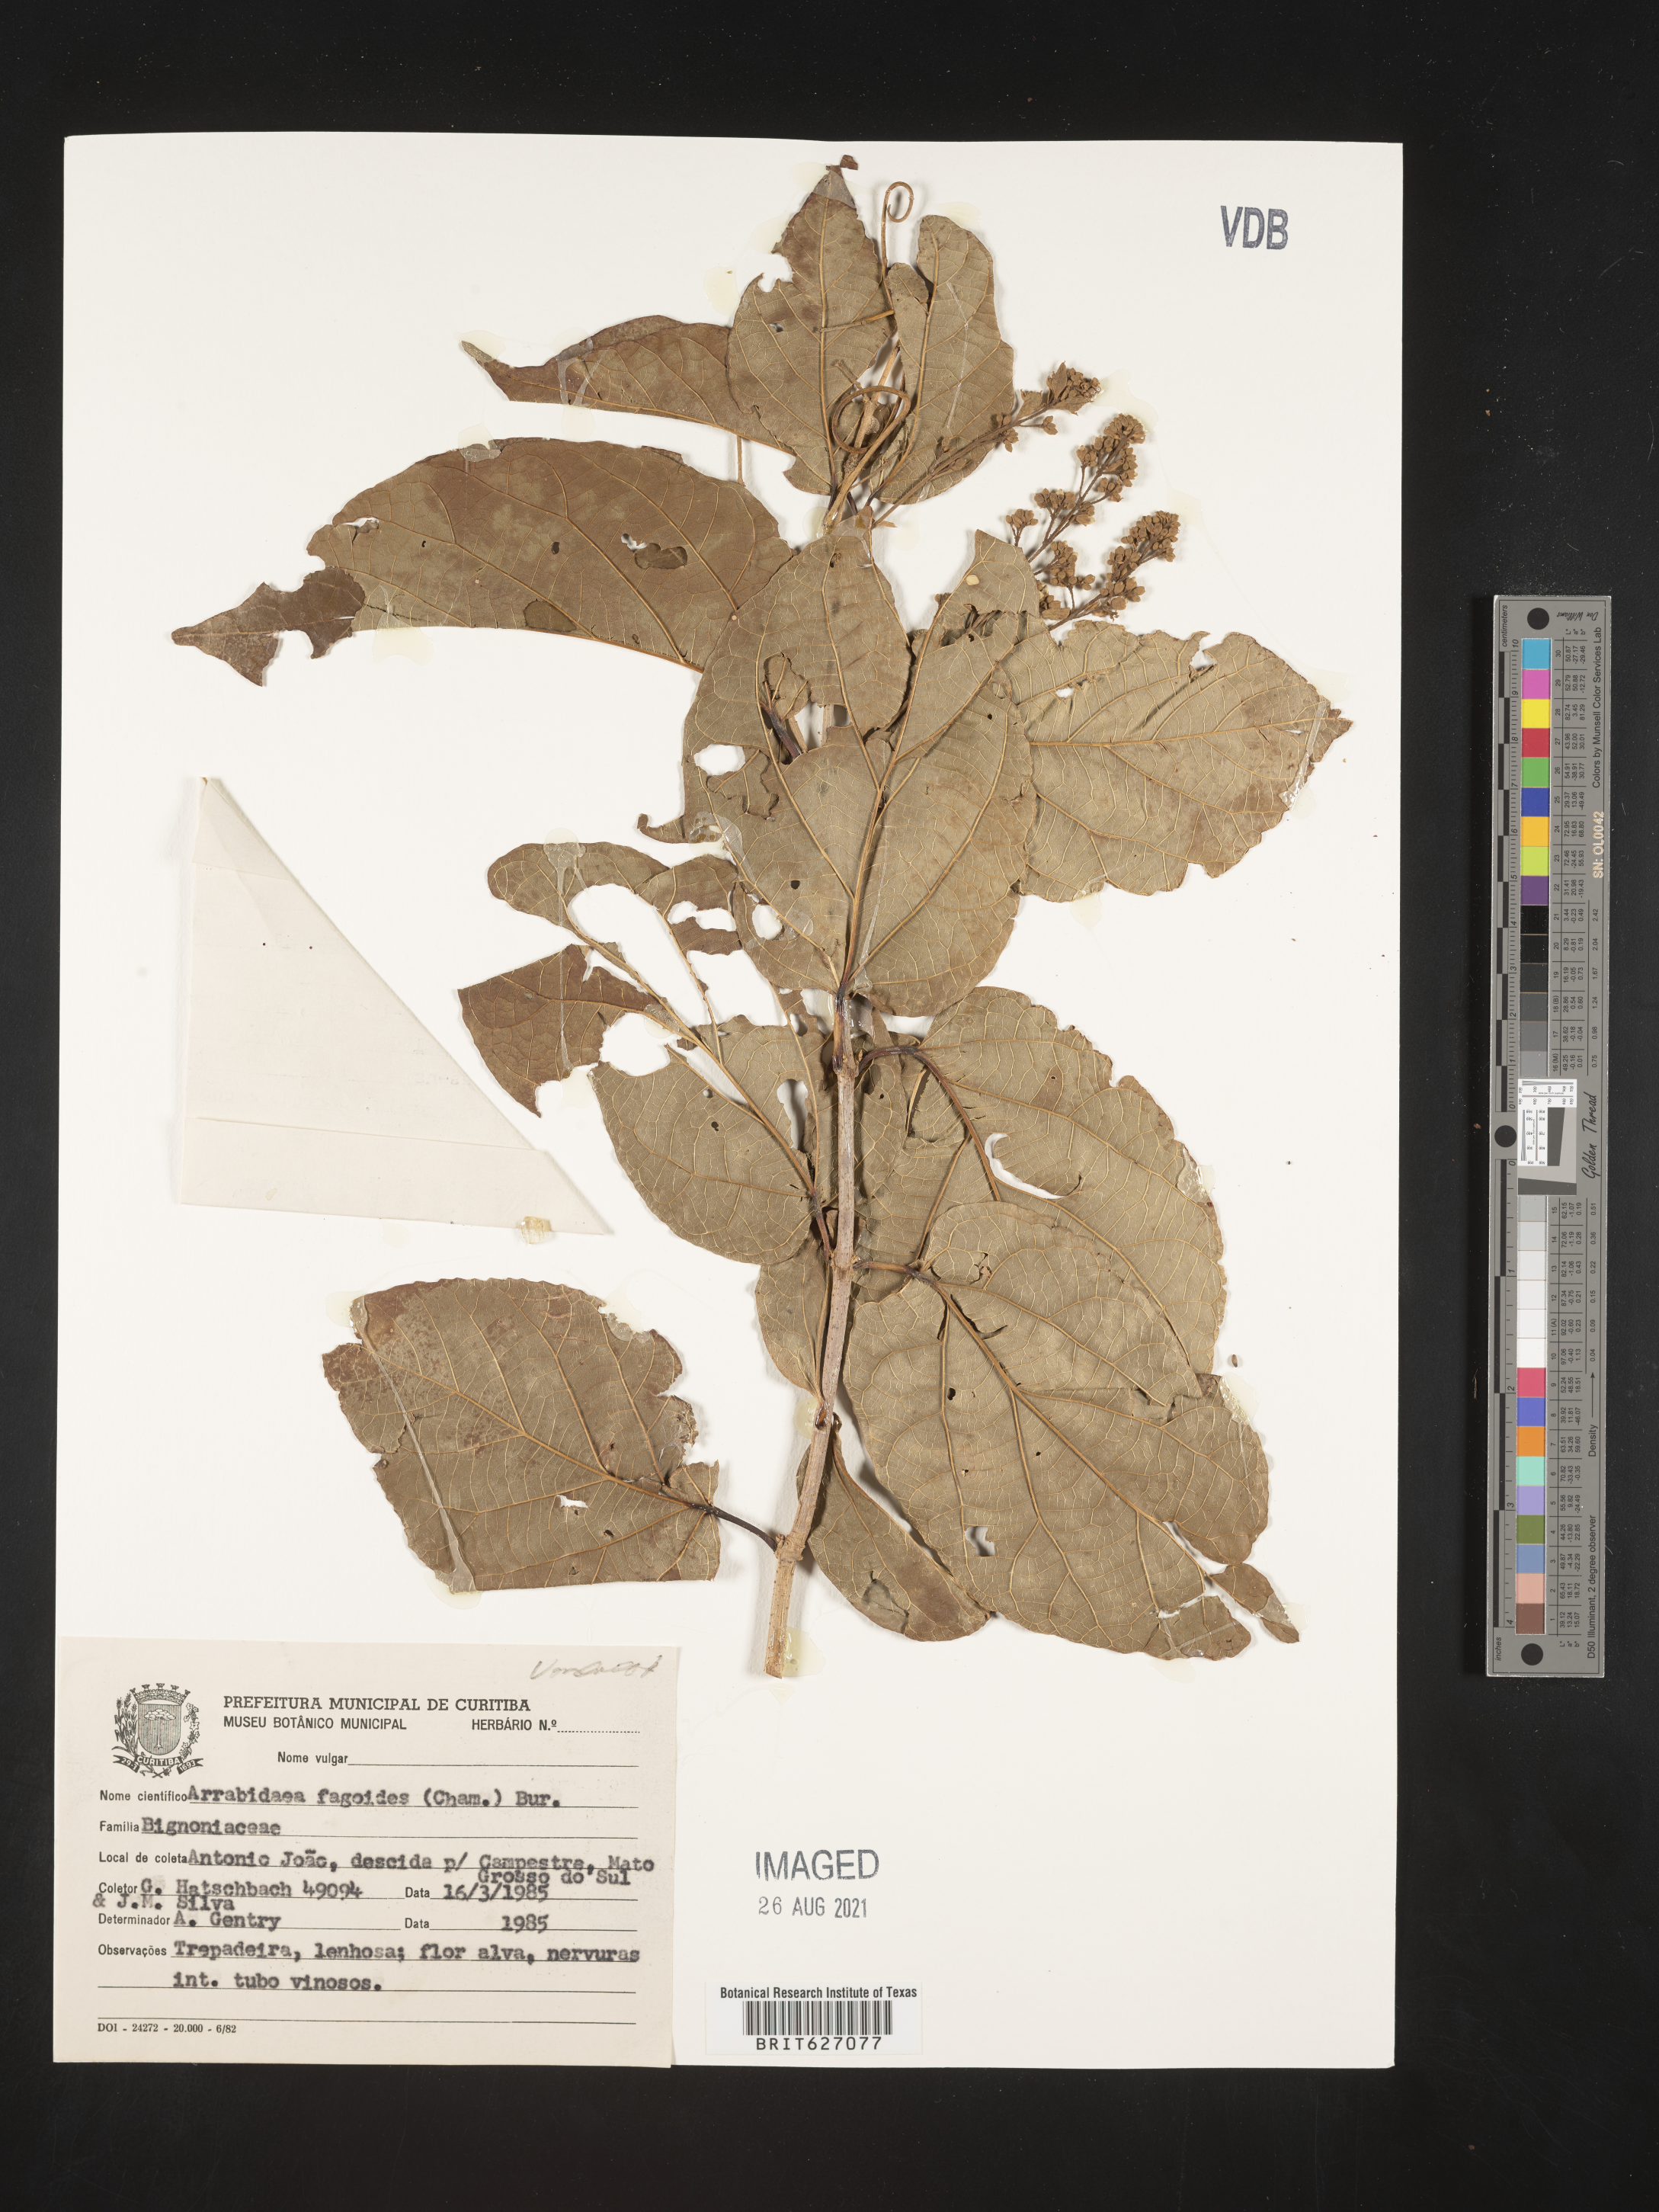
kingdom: Plantae
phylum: Tracheophyta
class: Magnoliopsida
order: Lamiales
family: Bignoniaceae
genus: Fridericia
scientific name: Fridericia fagoides
